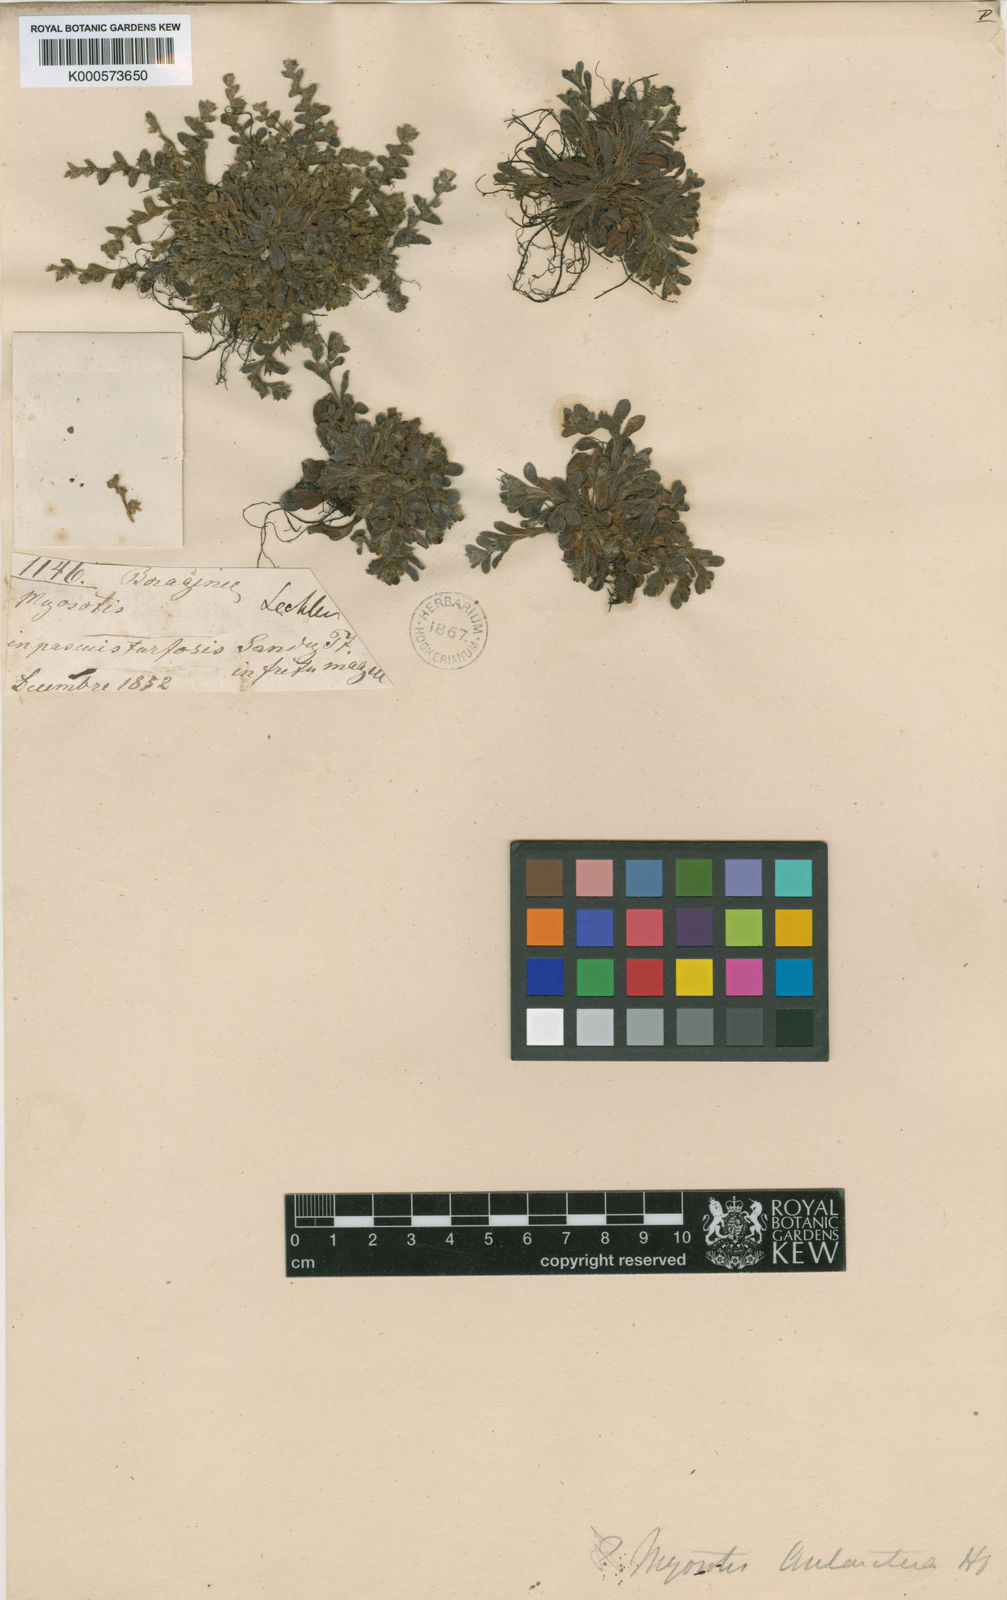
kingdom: Plantae
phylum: Tracheophyta
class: Magnoliopsida
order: Boraginales
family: Boraginaceae
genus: Myosotis
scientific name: Myosotis antarctica
